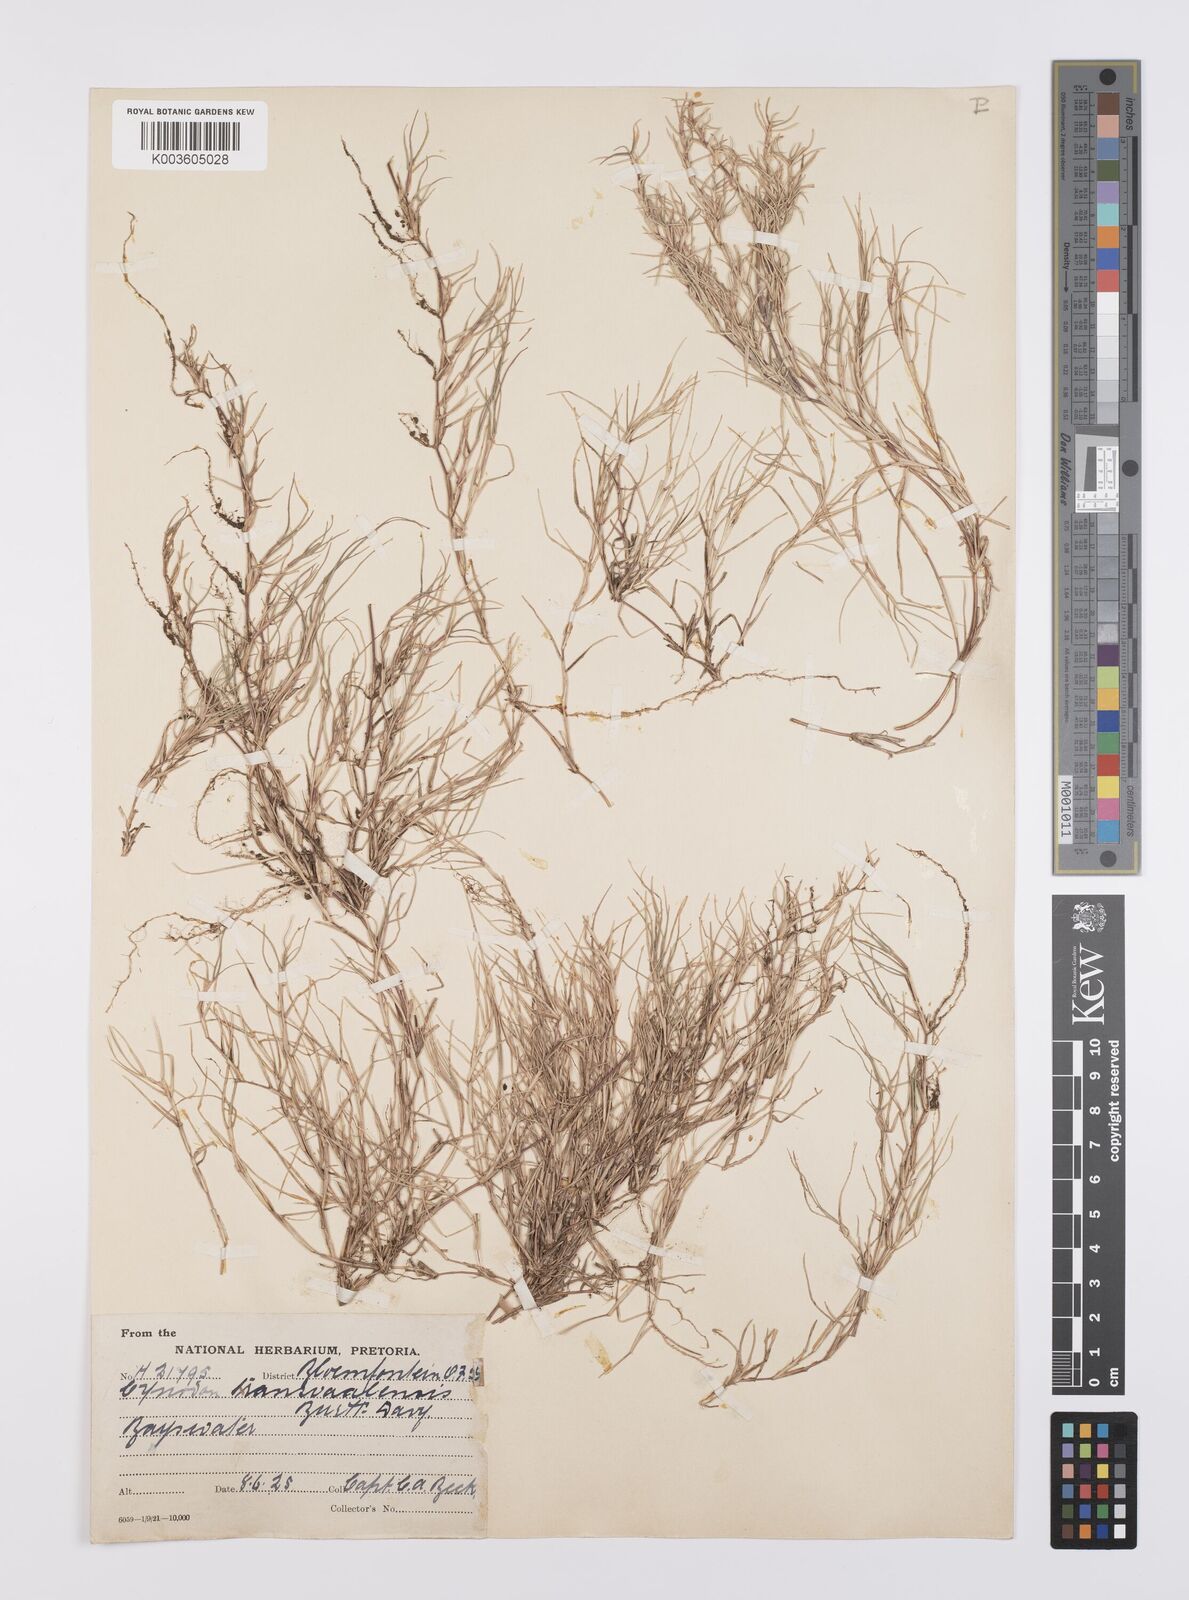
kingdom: Plantae
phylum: Tracheophyta
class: Liliopsida
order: Poales
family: Poaceae
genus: Cynodon
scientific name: Cynodon transvaalensis
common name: African bermuda grass
